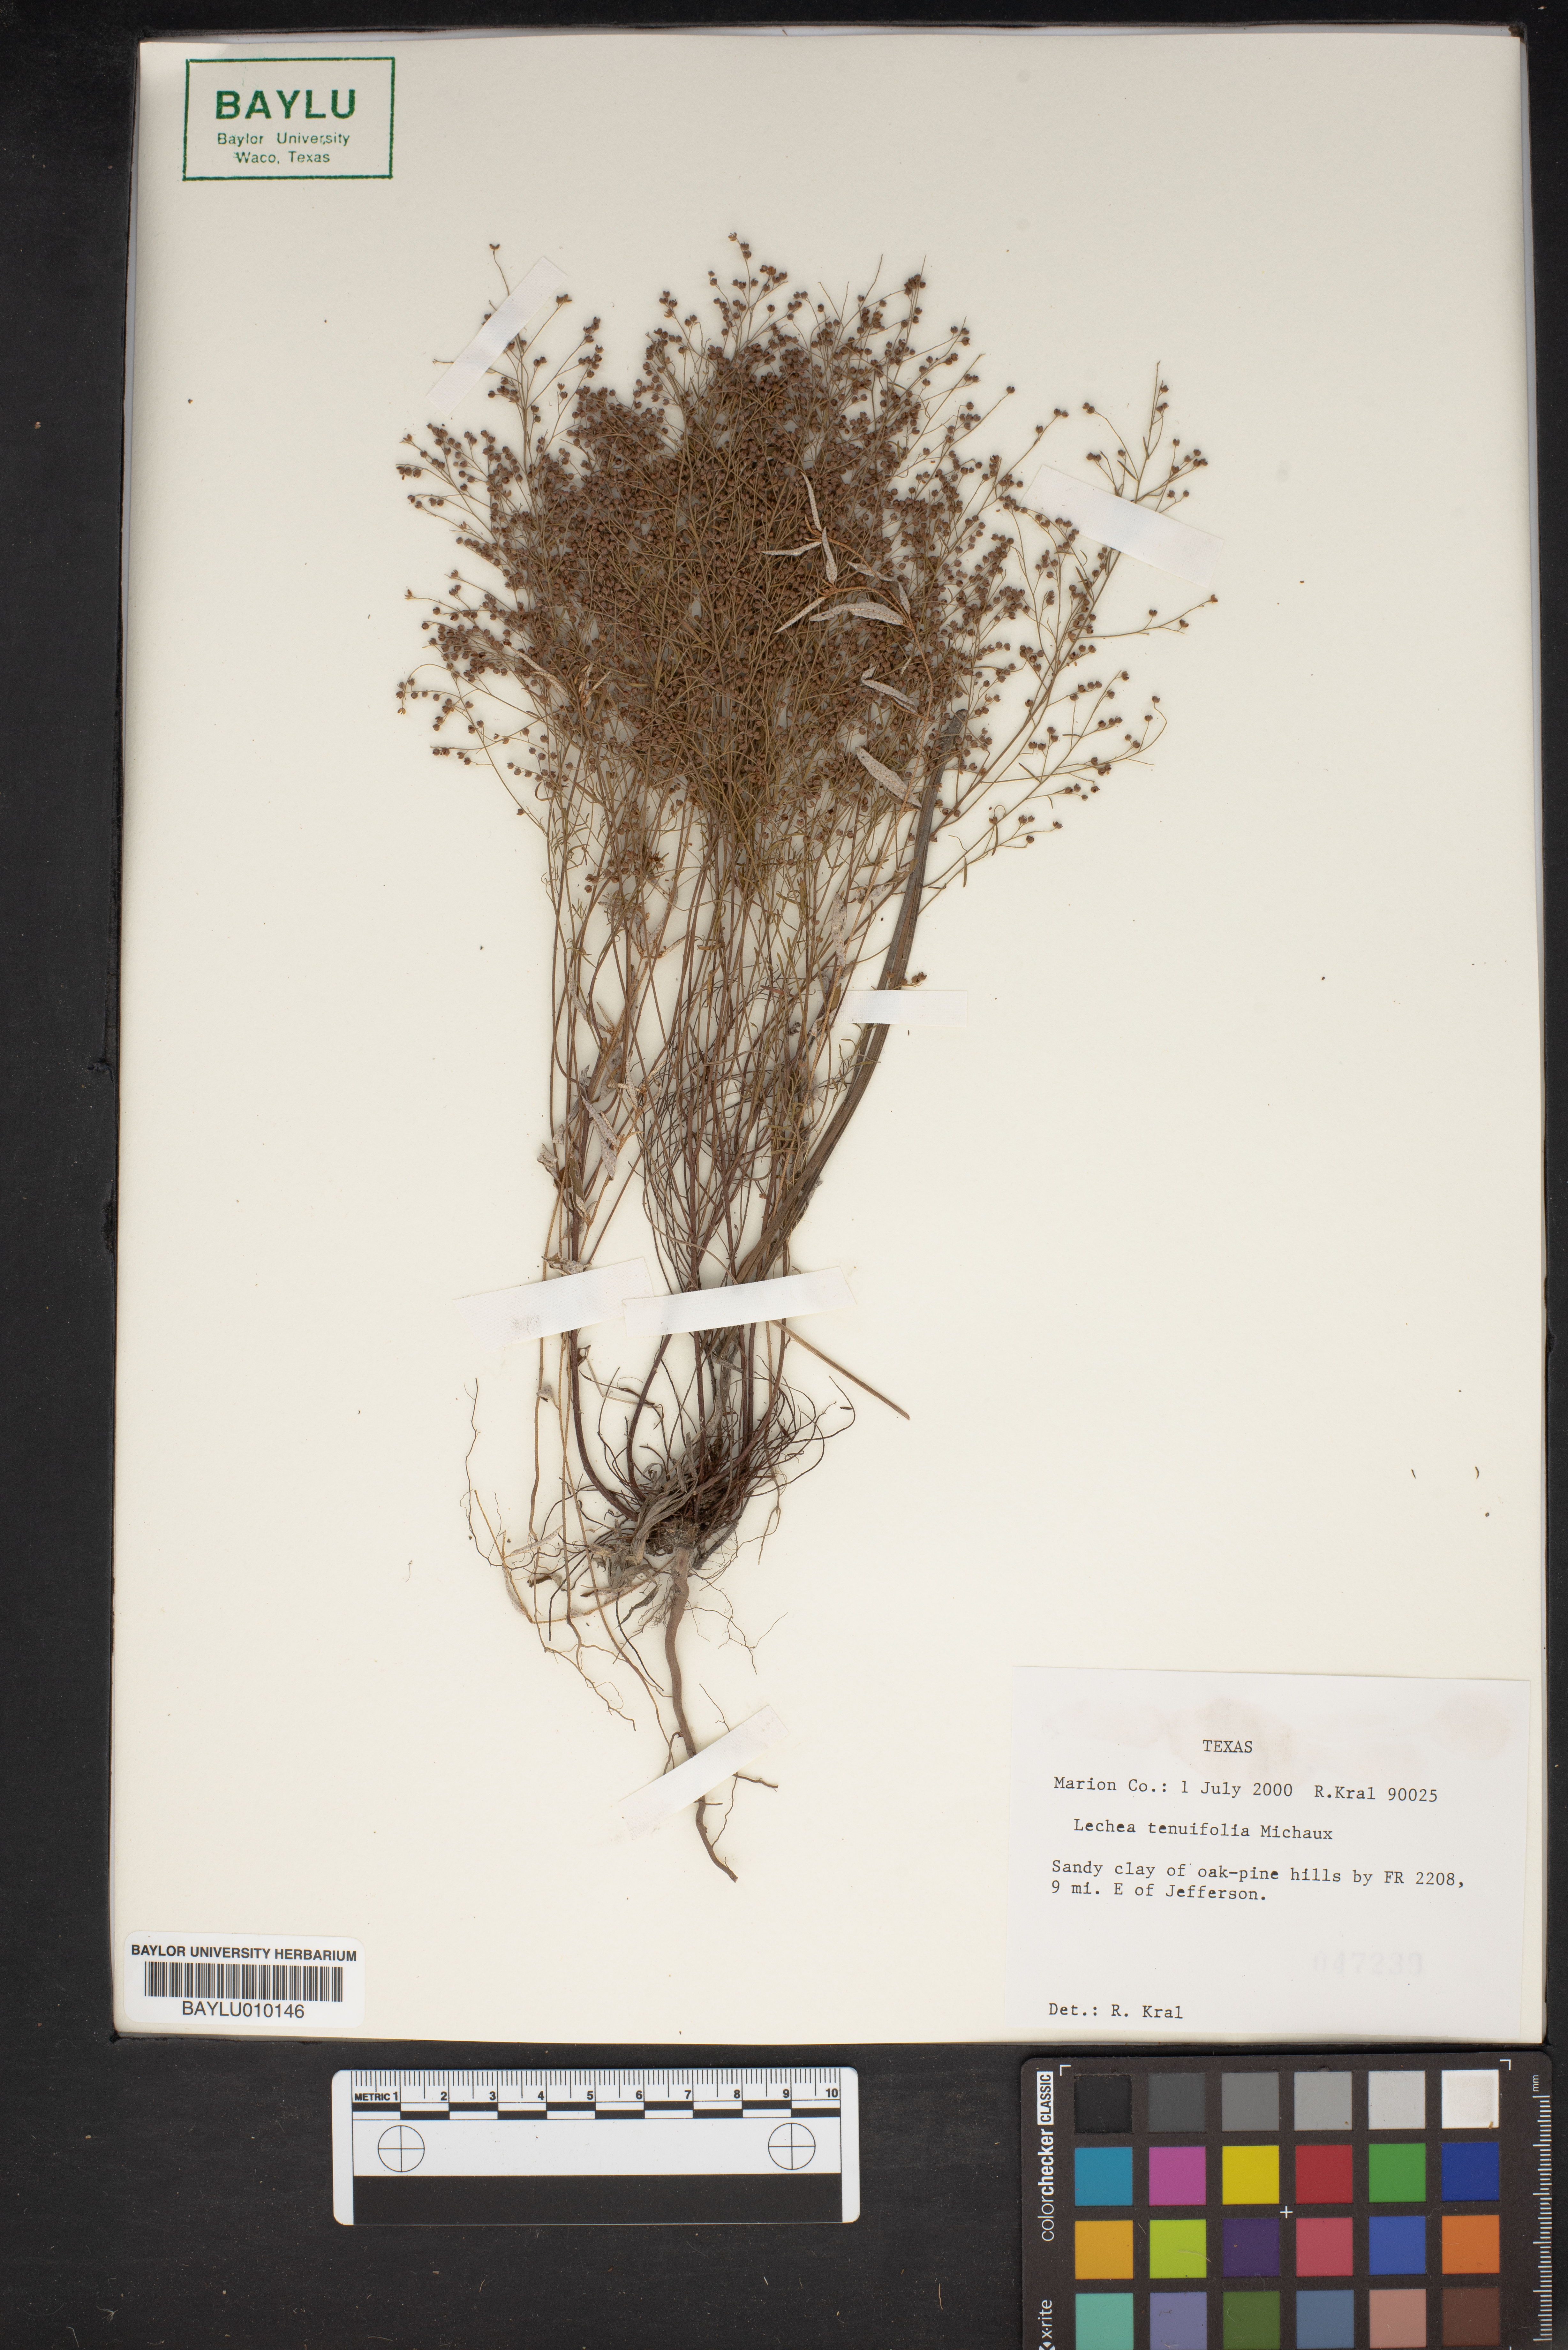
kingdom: Plantae
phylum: Tracheophyta
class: Magnoliopsida
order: Malvales
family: Cistaceae
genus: Lechea
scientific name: Lechea tenuifolia
